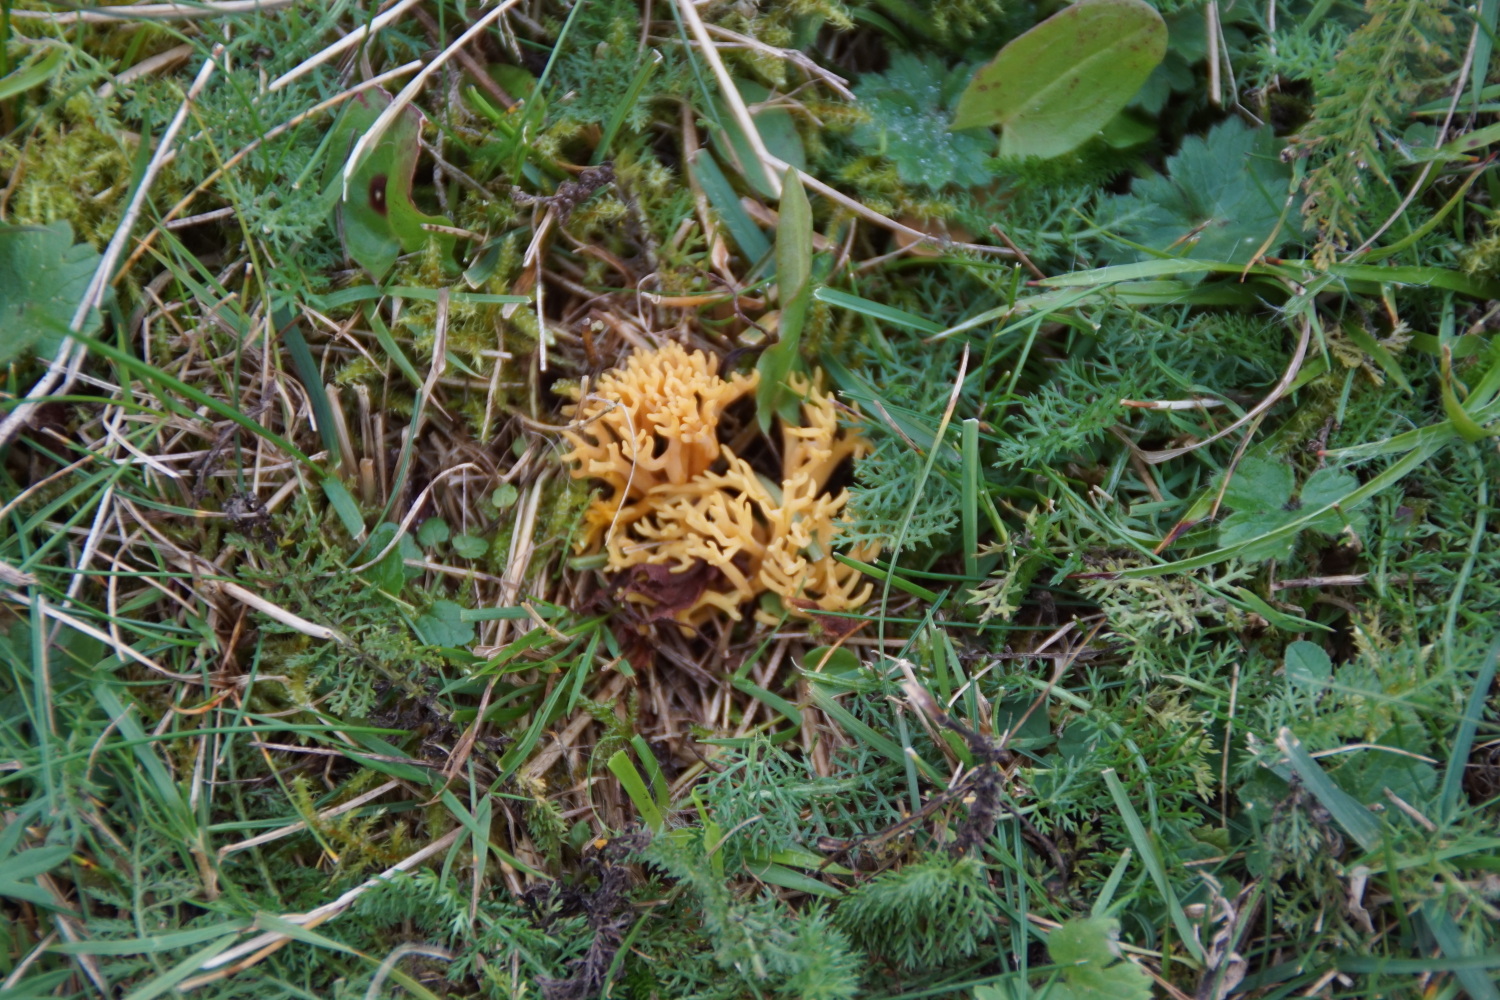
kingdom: Fungi
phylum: Basidiomycota
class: Agaricomycetes
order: Agaricales
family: Clavariaceae
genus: Clavulinopsis
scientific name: Clavulinopsis corniculata
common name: eng-køllesvamp
